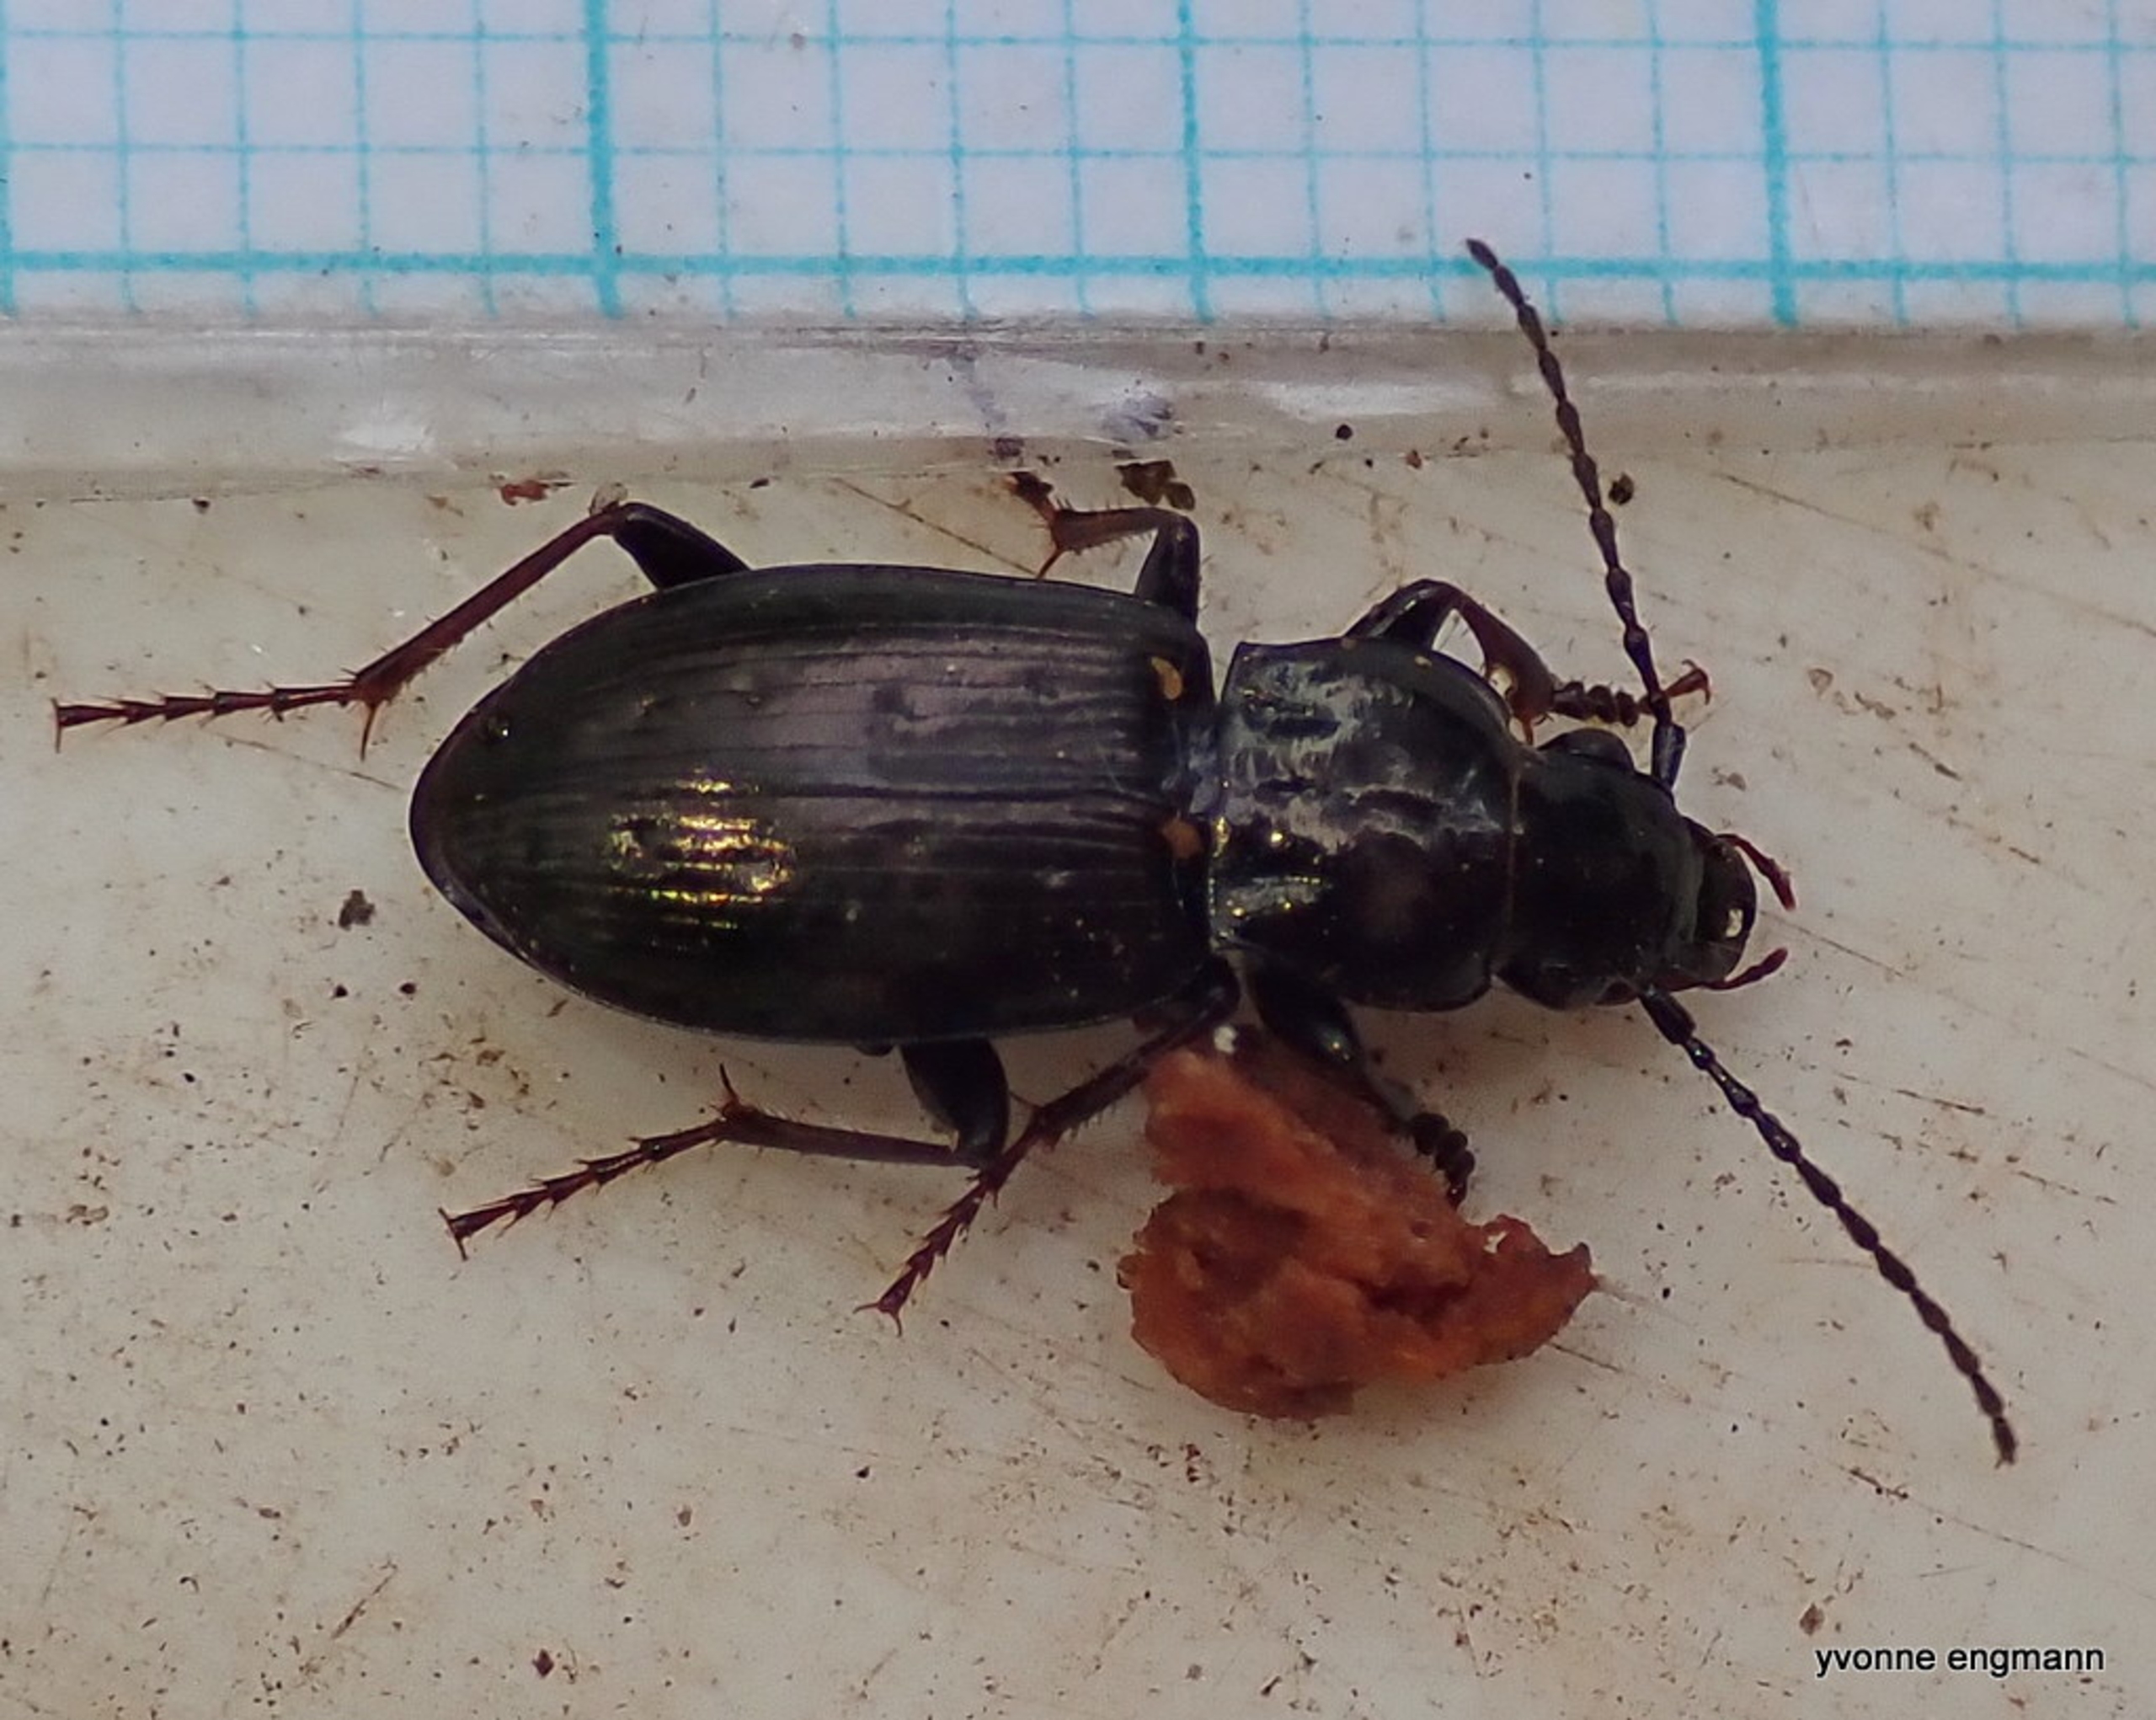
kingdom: Animalia
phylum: Arthropoda
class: Insecta
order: Coleoptera
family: Carabidae
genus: Pterostichus
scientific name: Pterostichus oblongopunctatus
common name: Bronzejordløber
